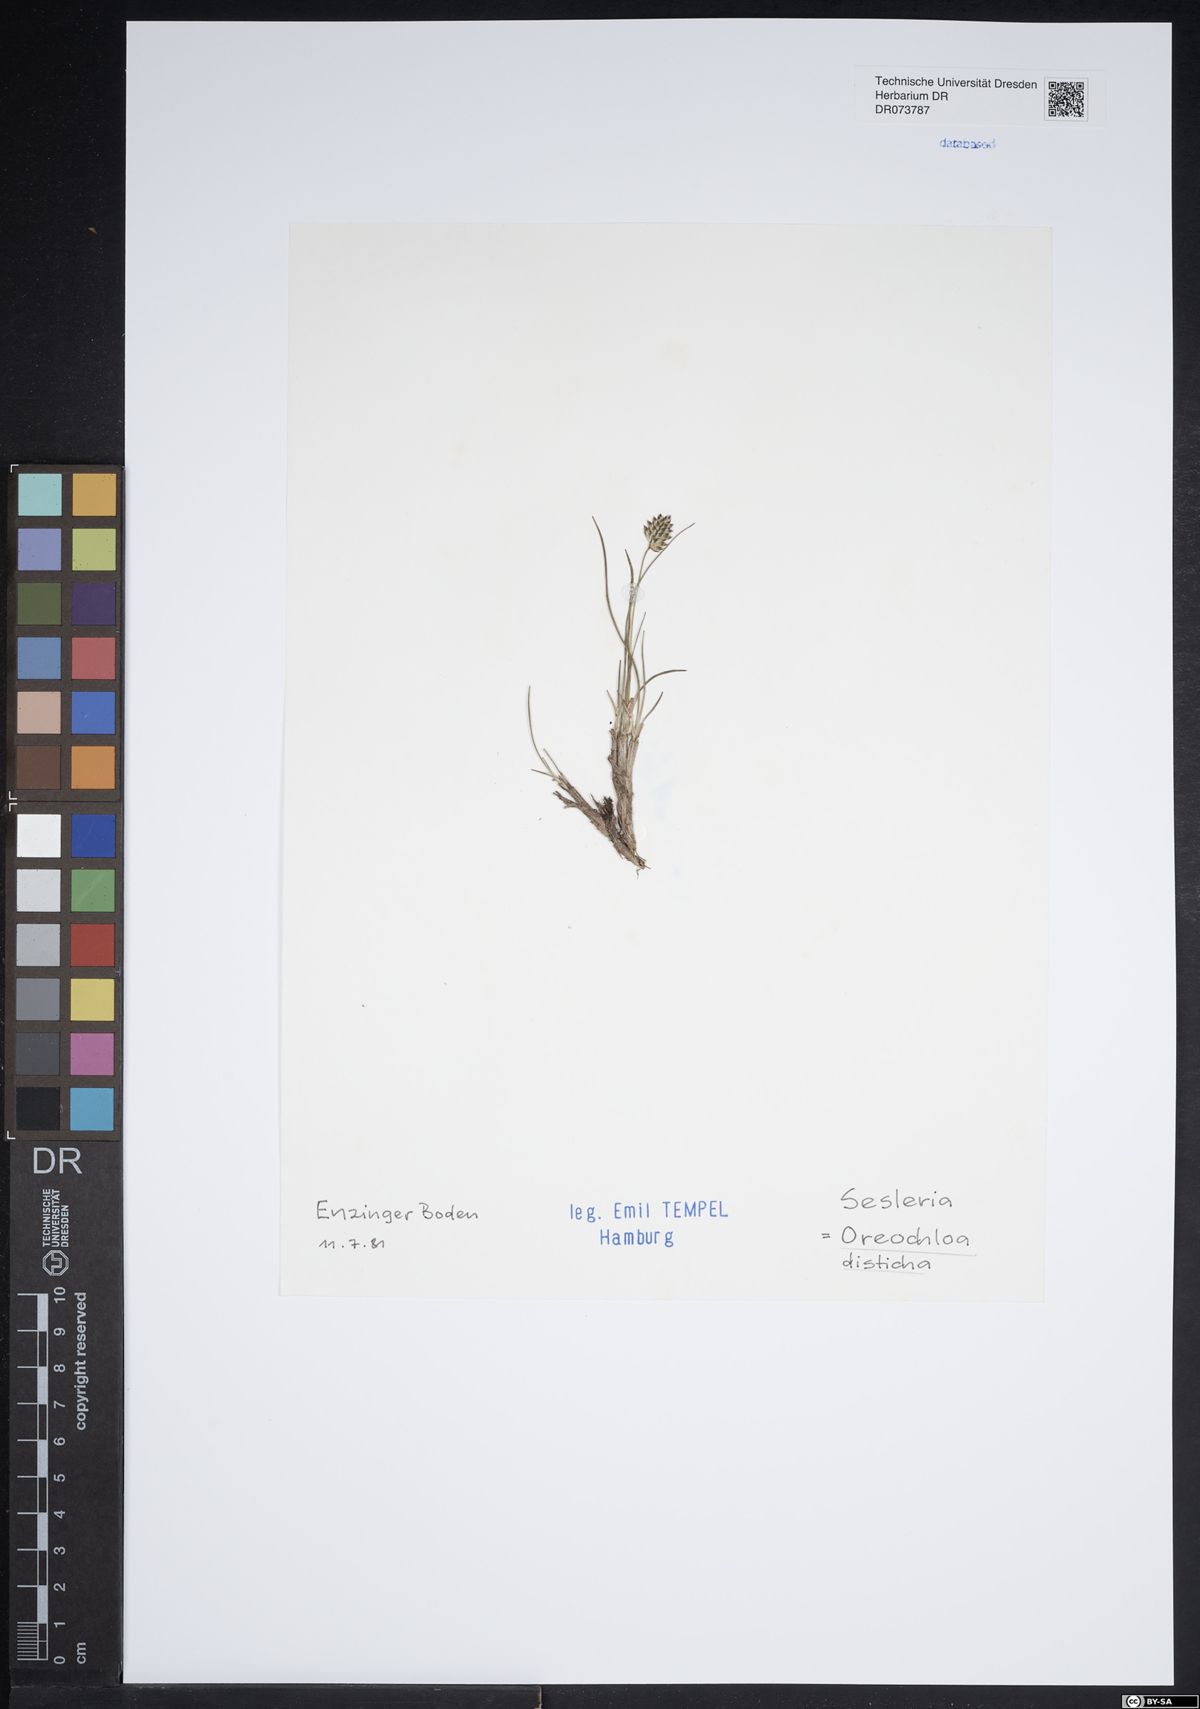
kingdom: Plantae
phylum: Tracheophyta
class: Liliopsida
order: Poales
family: Poaceae
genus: Oreochloa
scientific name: Oreochloa disticha
